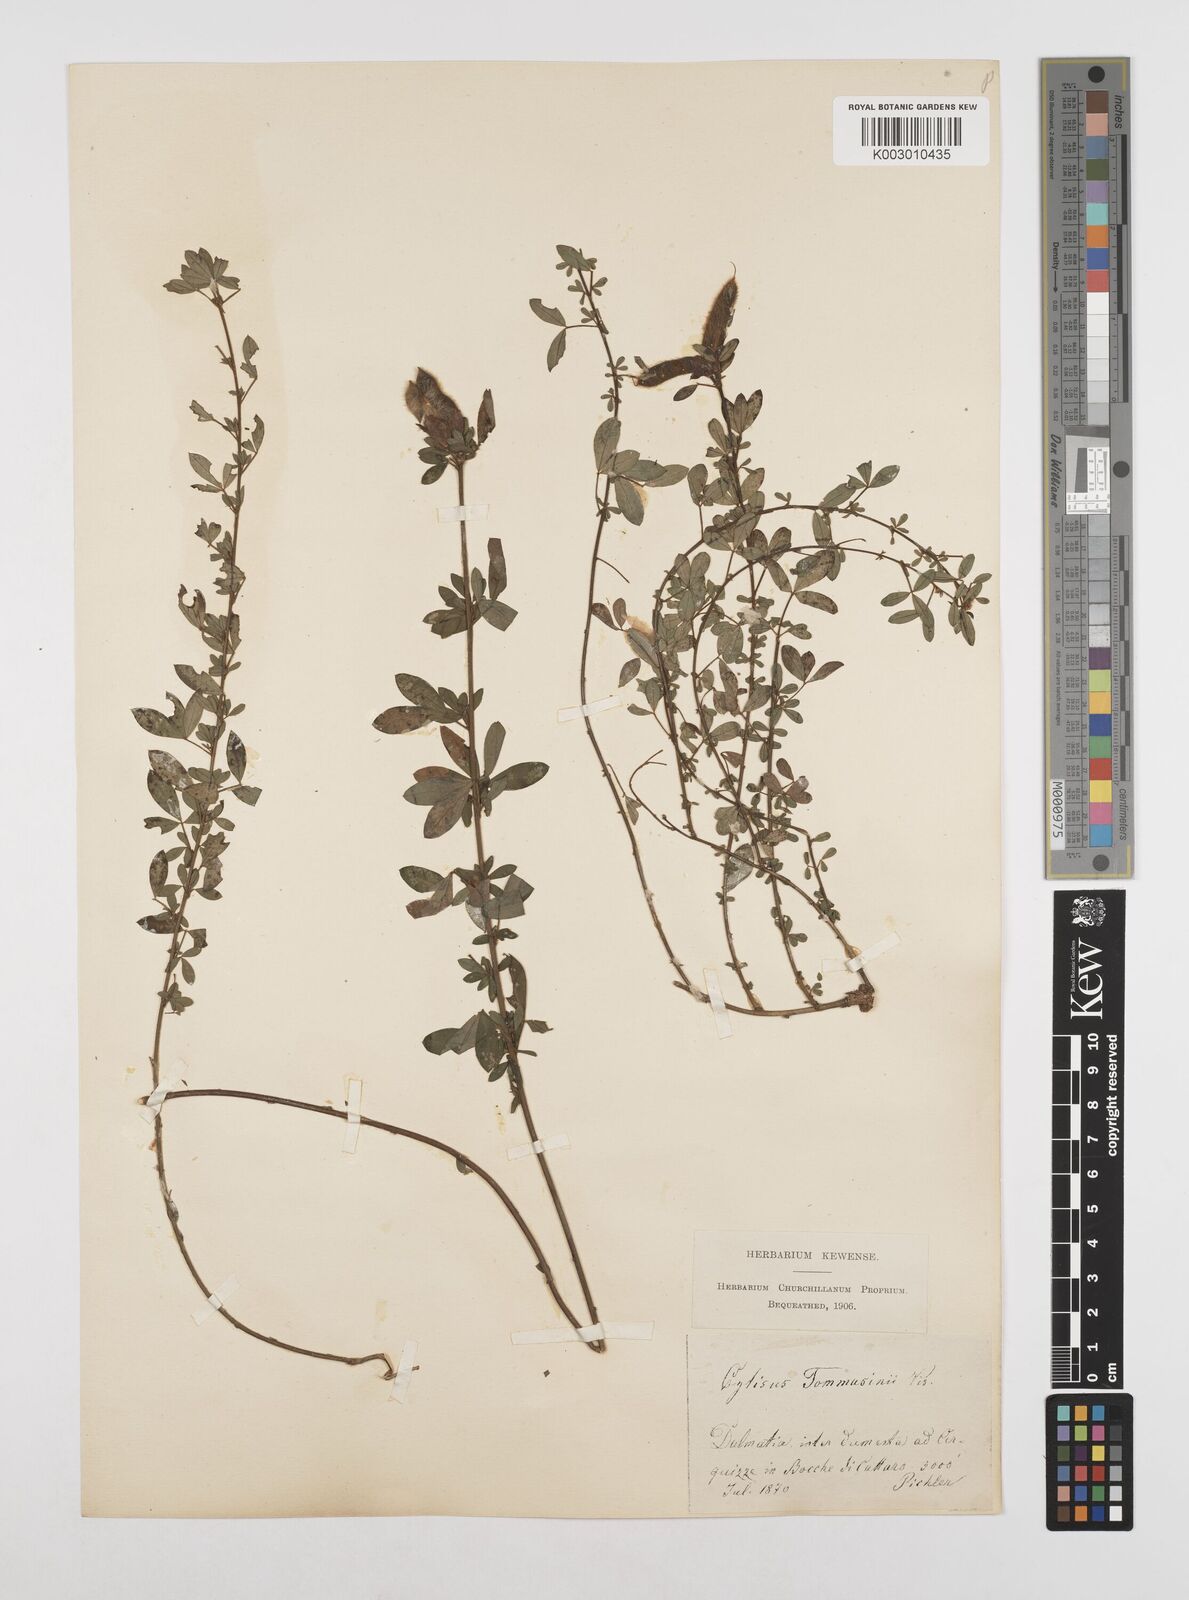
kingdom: Plantae
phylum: Tracheophyta
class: Magnoliopsida
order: Fabales
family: Fabaceae
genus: Chamaecytisus
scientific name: Chamaecytisus tommasinii
